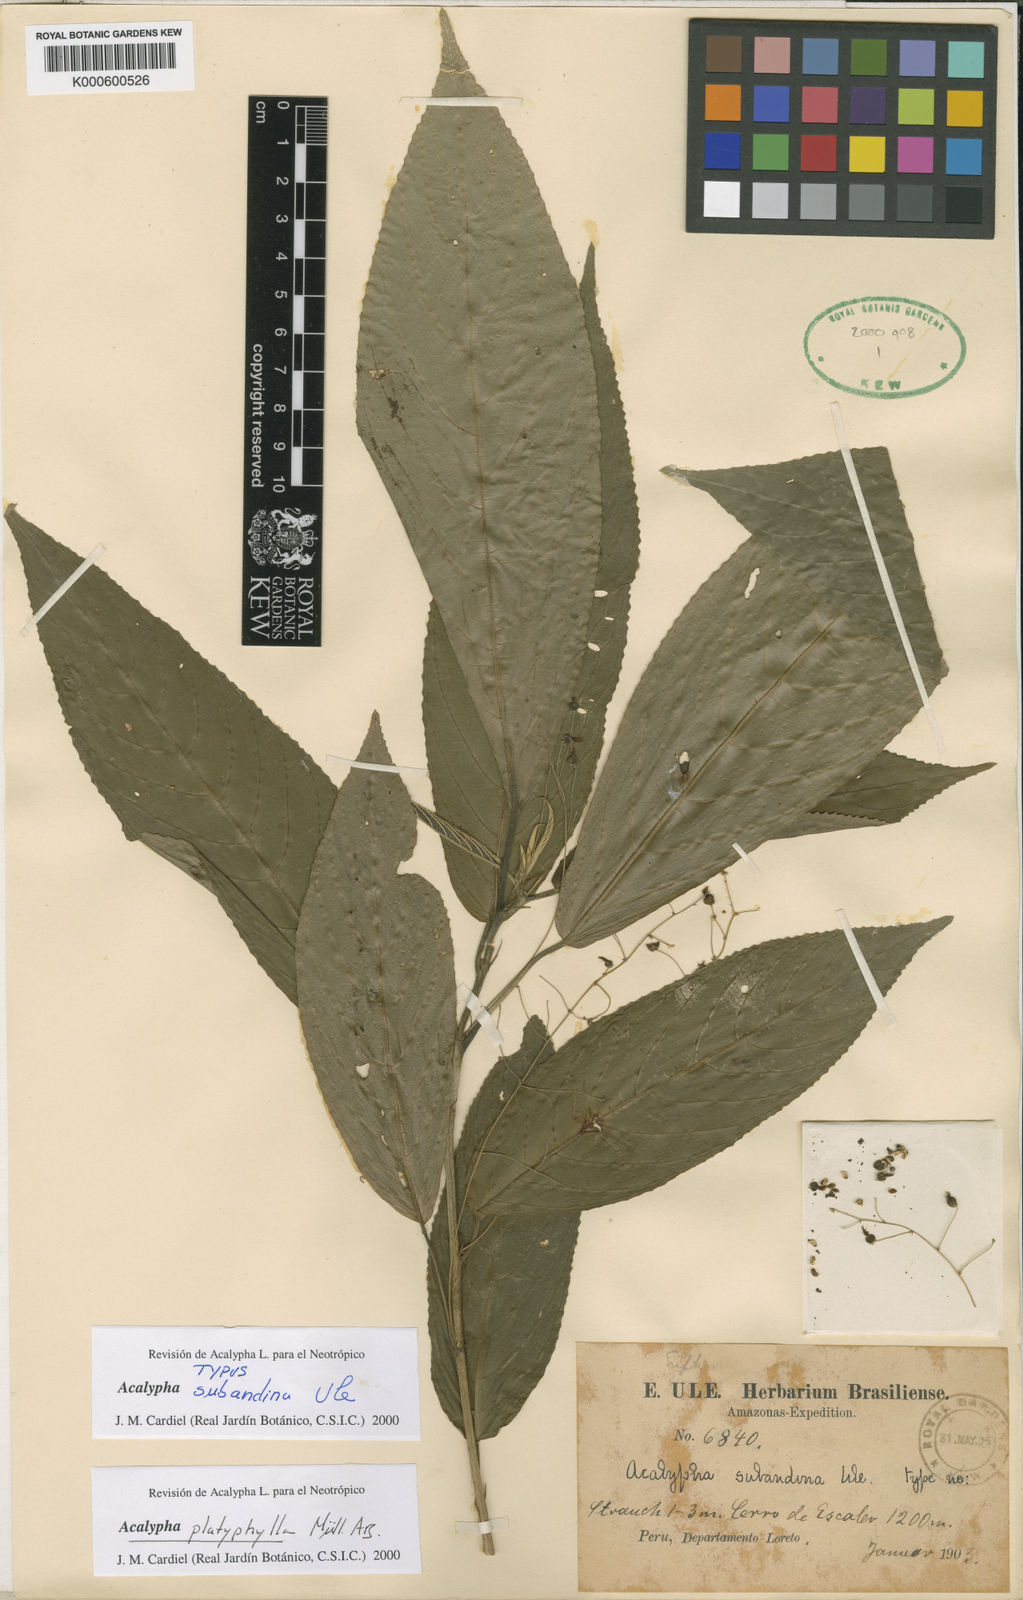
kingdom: Plantae
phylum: Tracheophyta
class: Magnoliopsida
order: Malpighiales
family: Euphorbiaceae
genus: Acalypha
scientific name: Acalypha
